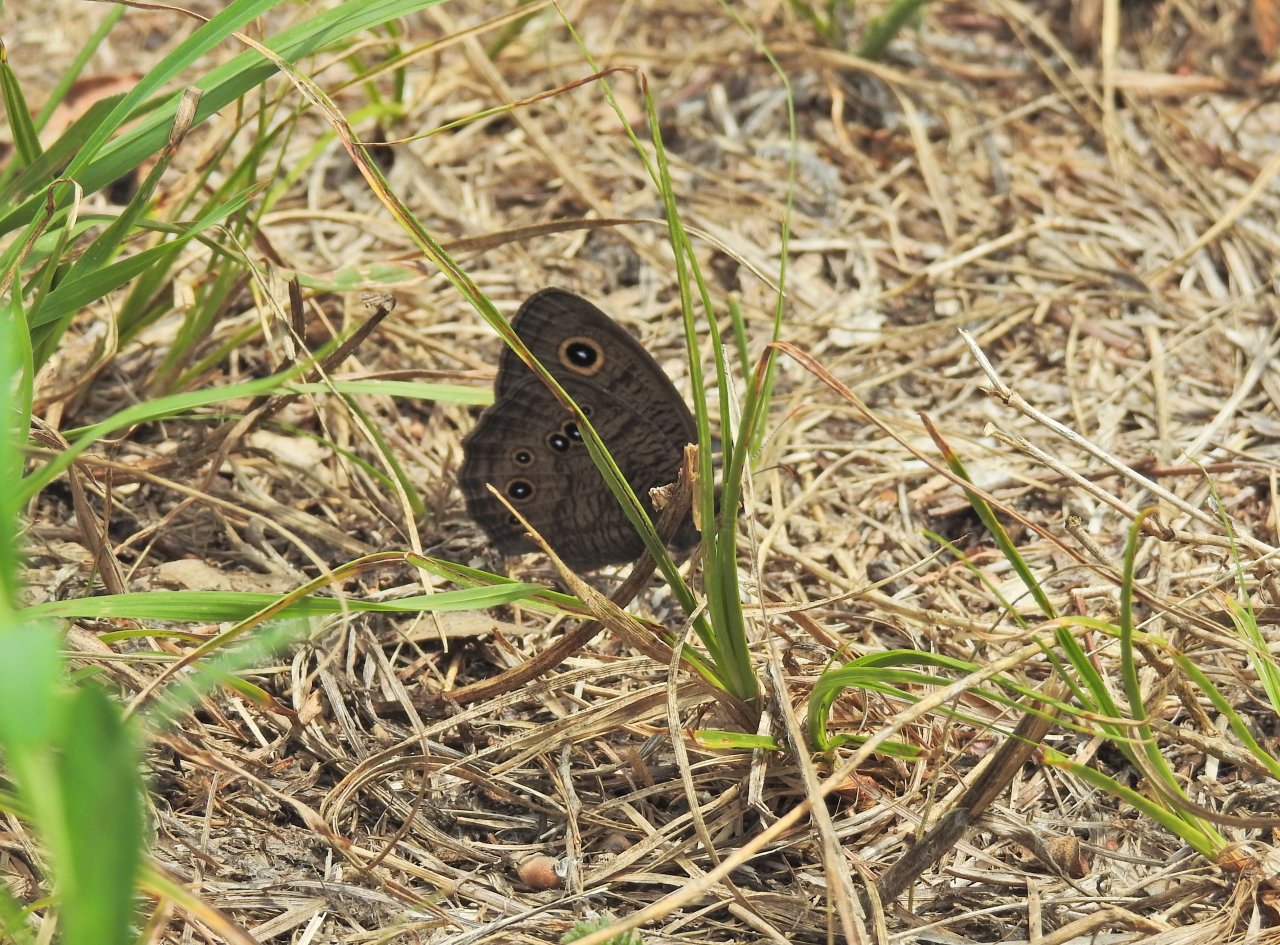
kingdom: Animalia
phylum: Arthropoda
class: Insecta
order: Lepidoptera
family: Nymphalidae
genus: Cercyonis
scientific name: Cercyonis pegala
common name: Common Wood-Nymph
